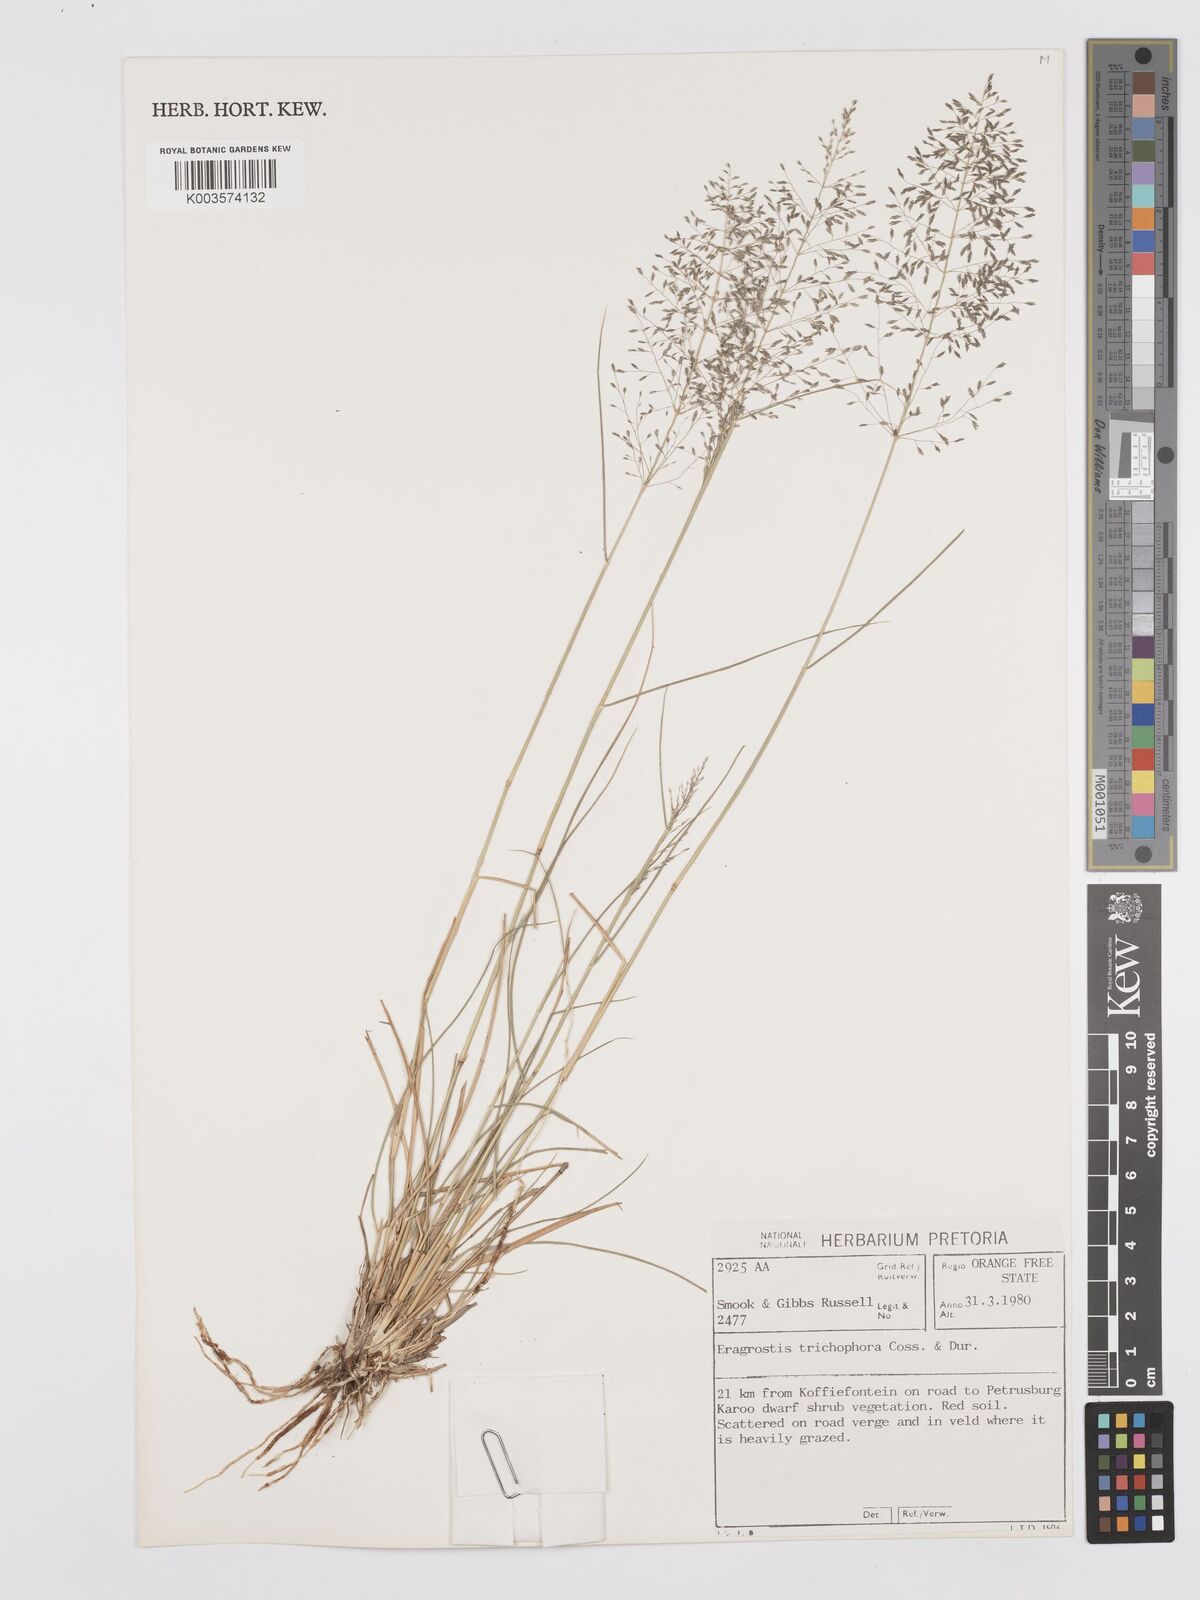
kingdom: Plantae
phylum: Tracheophyta
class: Liliopsida
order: Poales
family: Poaceae
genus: Eragrostis
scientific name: Eragrostis cylindriflora
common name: Cylinderflower lovegrass
